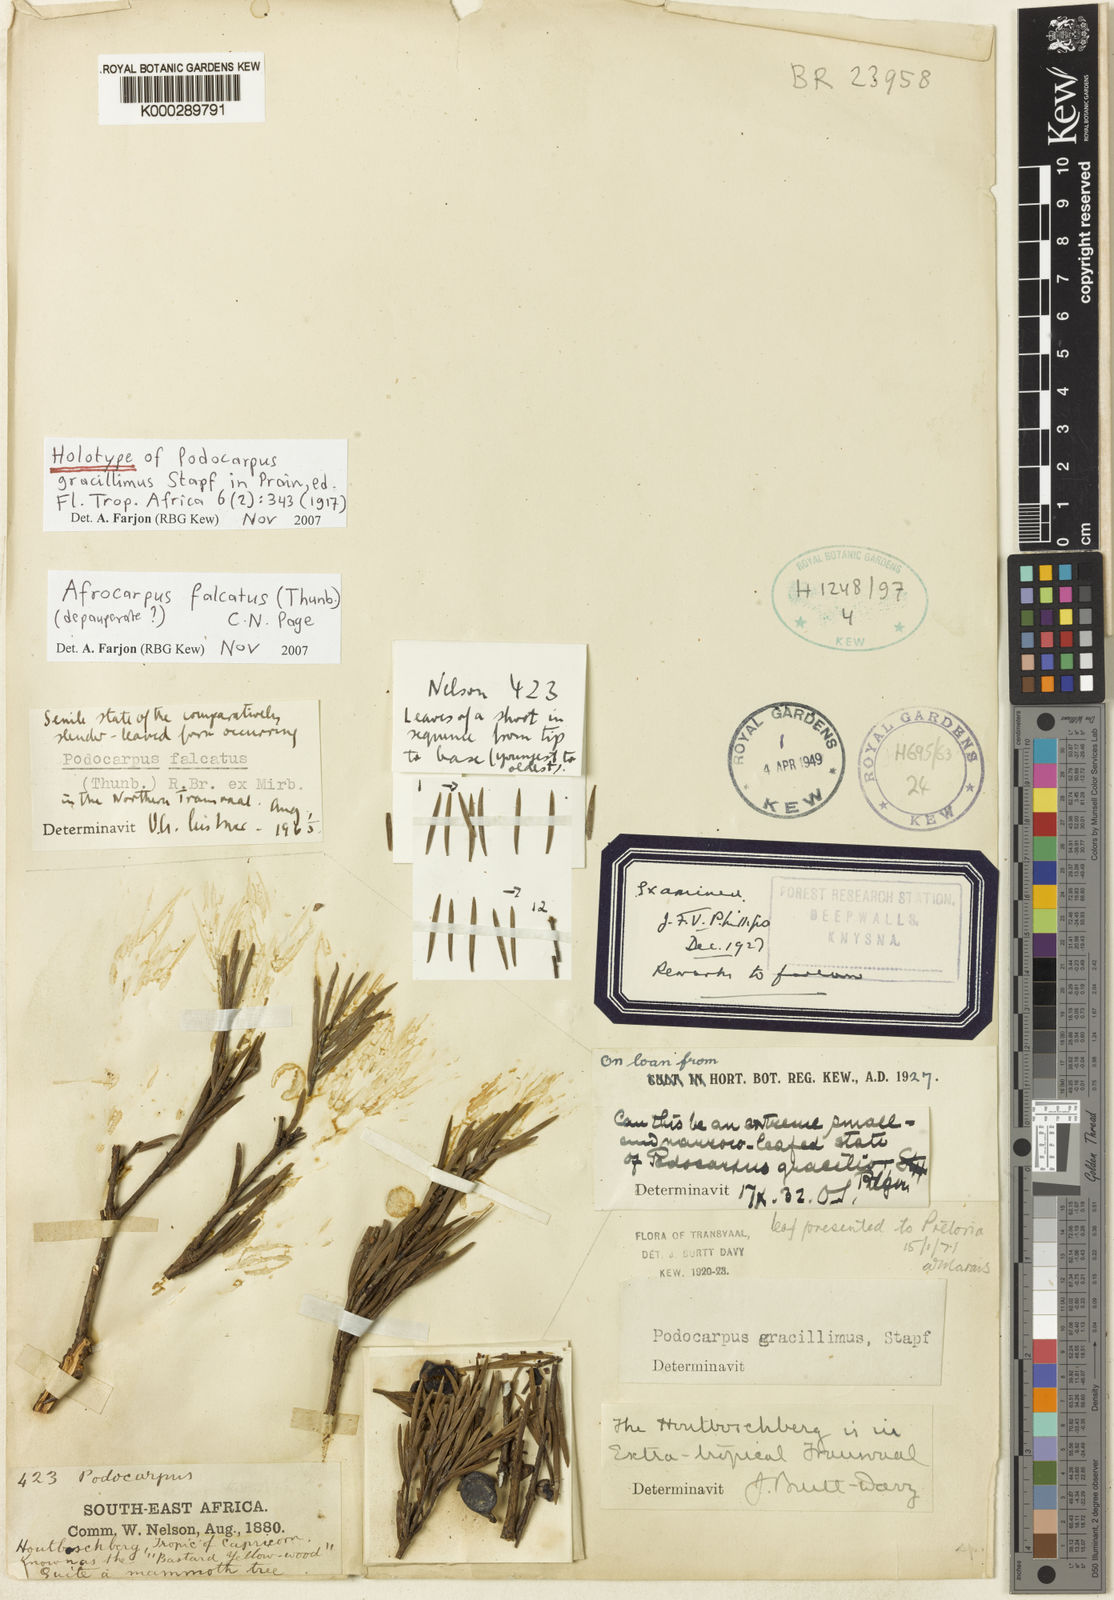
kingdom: Plantae
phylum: Tracheophyta
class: Pinopsida
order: Pinales
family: Podocarpaceae
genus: Afrocarpus
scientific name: Afrocarpus falcatus
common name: Bastard yellowwood
